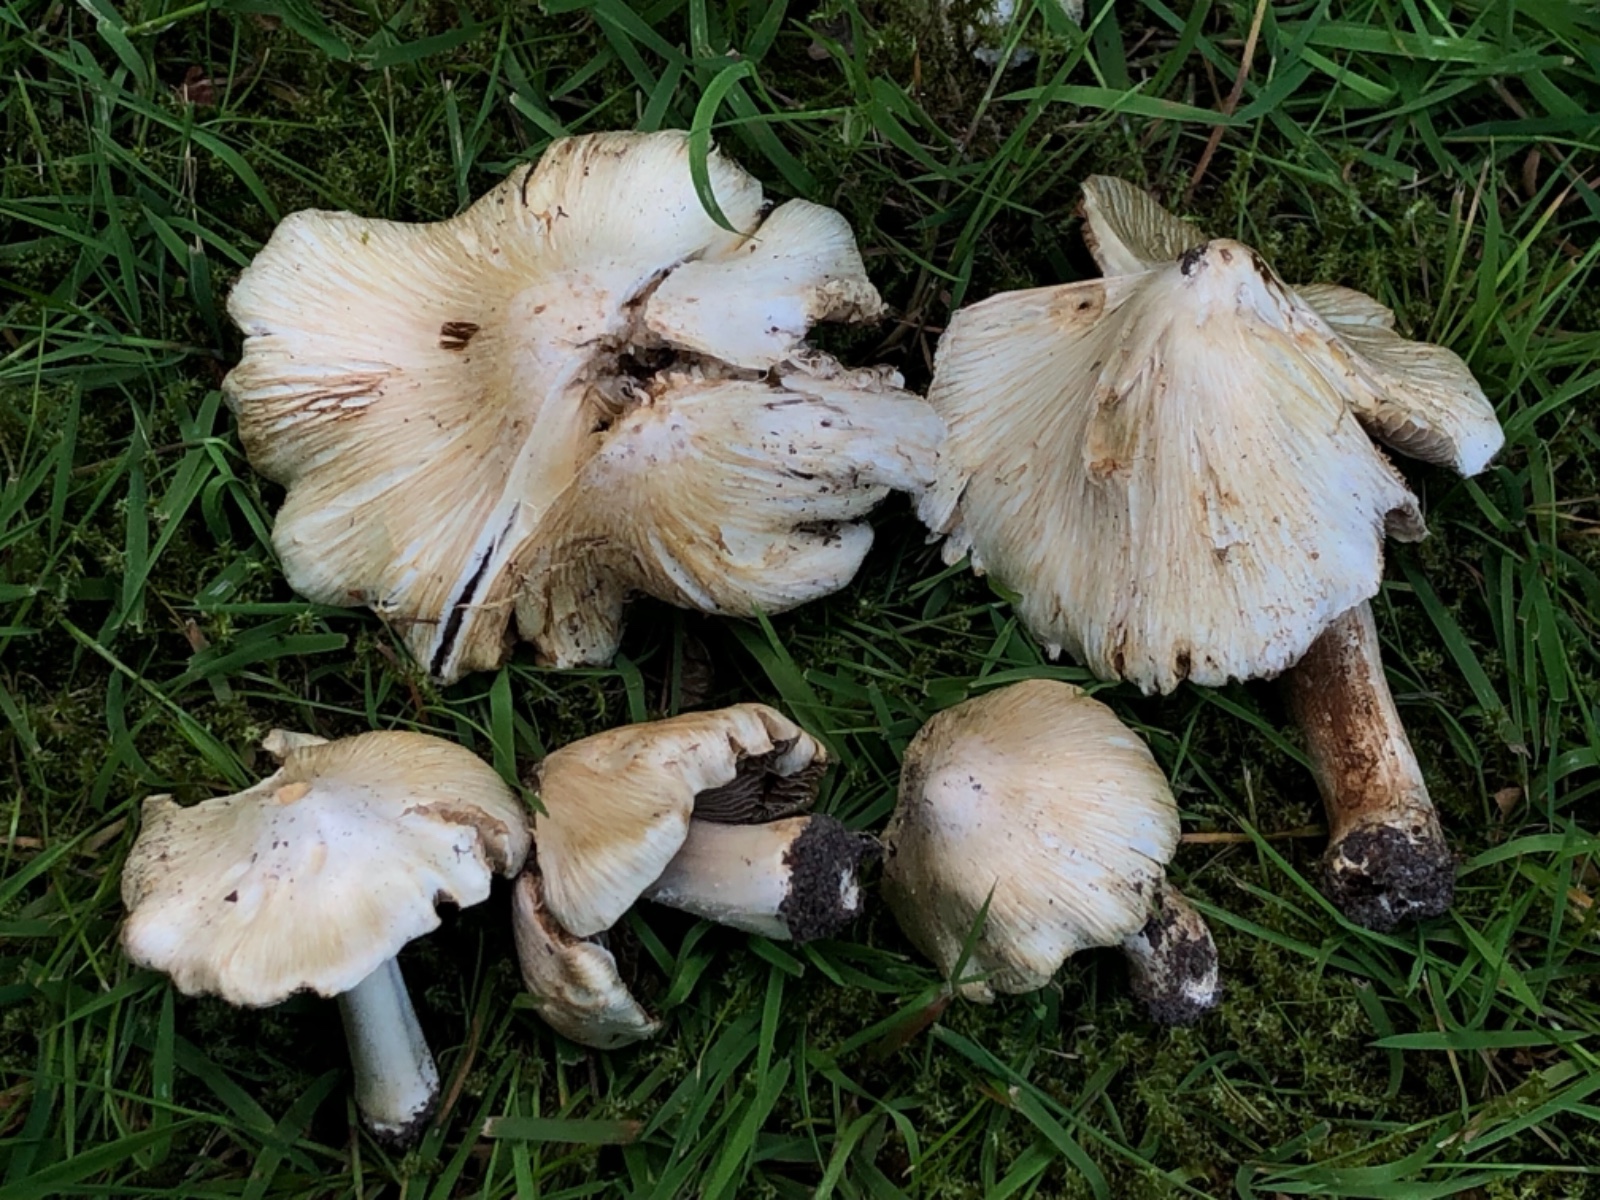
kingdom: Fungi
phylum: Basidiomycota
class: Agaricomycetes
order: Agaricales
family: Inocybaceae
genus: Inosperma
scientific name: Inosperma
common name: Trævlhat
